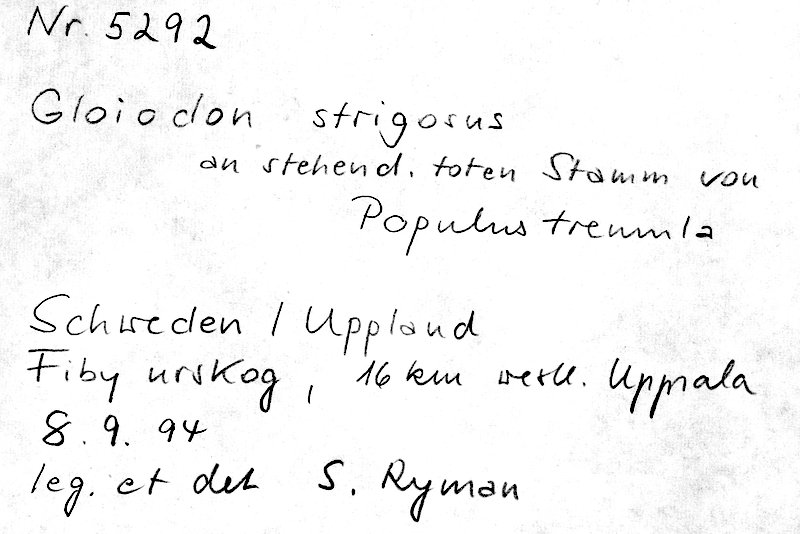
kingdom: Fungi
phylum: Basidiomycota
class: Agaricomycetes
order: Russulales
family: Bondarzewiaceae
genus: Gloiodon
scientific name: Gloiodon strigosus
